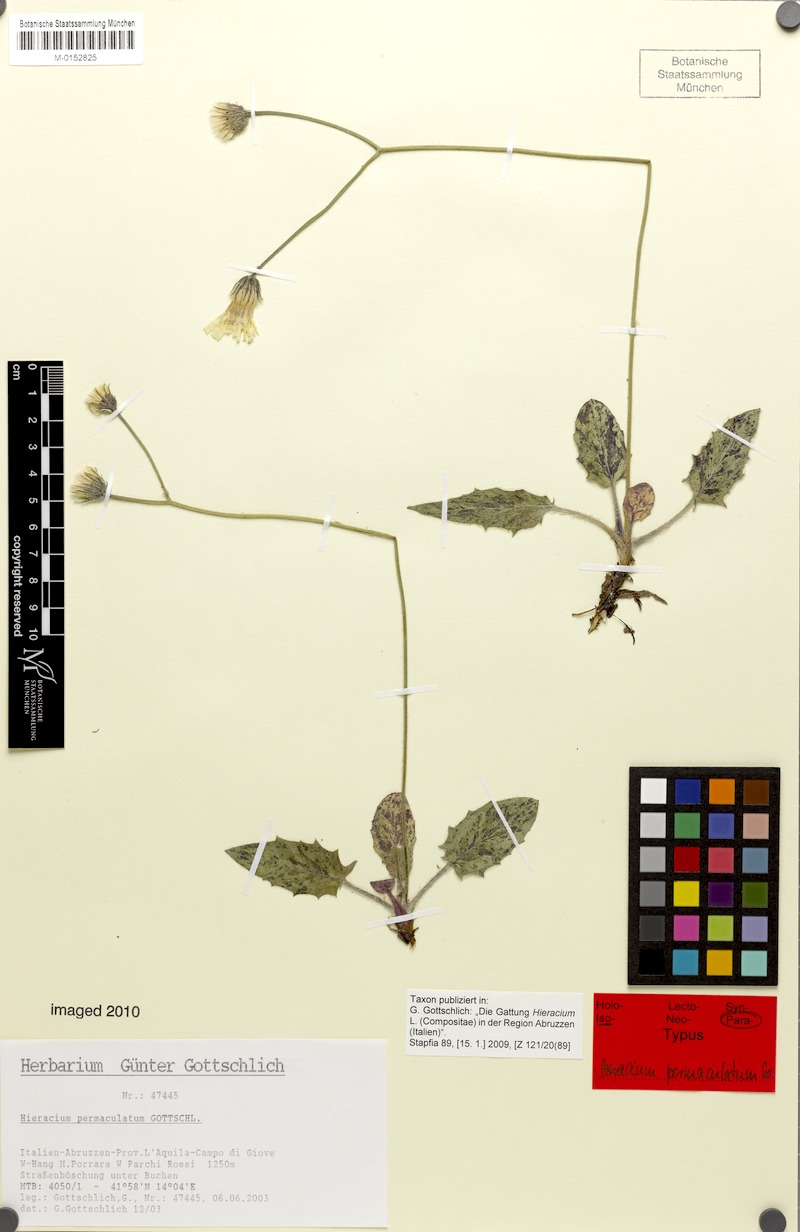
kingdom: Plantae
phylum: Tracheophyta
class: Magnoliopsida
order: Asterales
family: Asteraceae
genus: Hieracium
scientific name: Hieracium permaculatum
